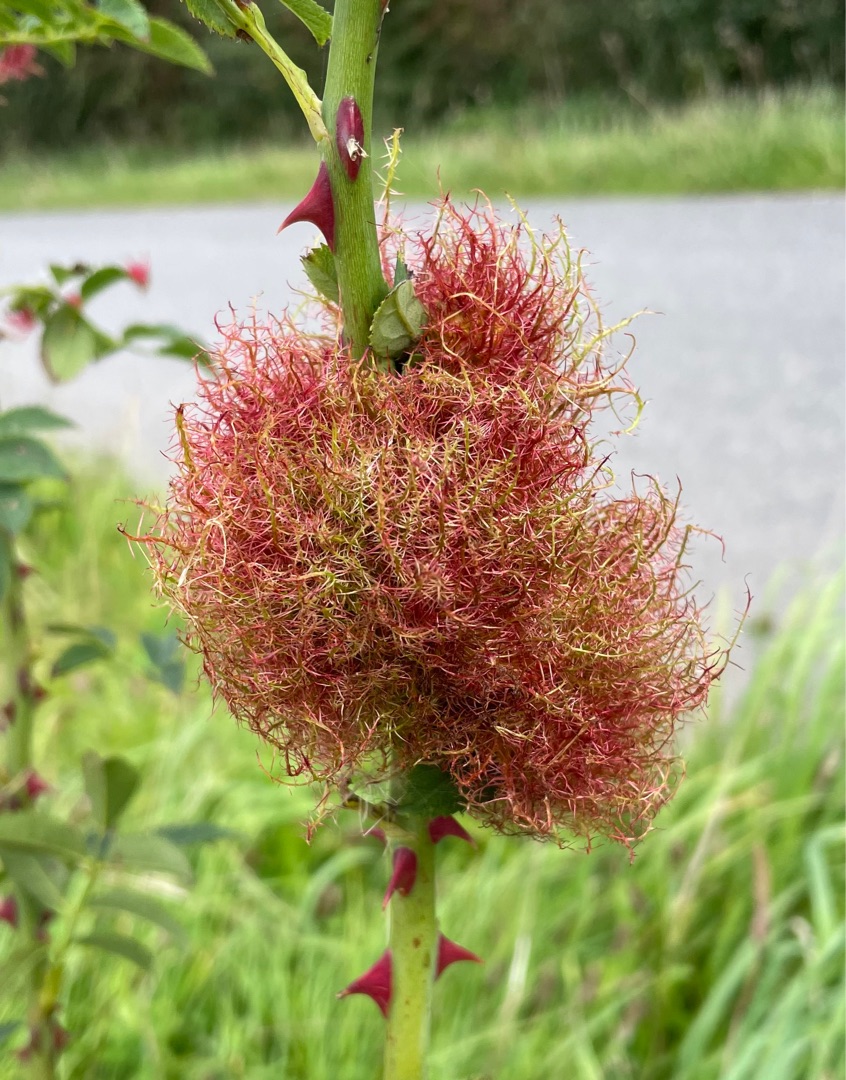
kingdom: Animalia
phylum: Arthropoda
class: Insecta
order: Hymenoptera
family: Cynipidae
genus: Diplolepis
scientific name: Diplolepis rosae
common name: Bedeguargalhveps
